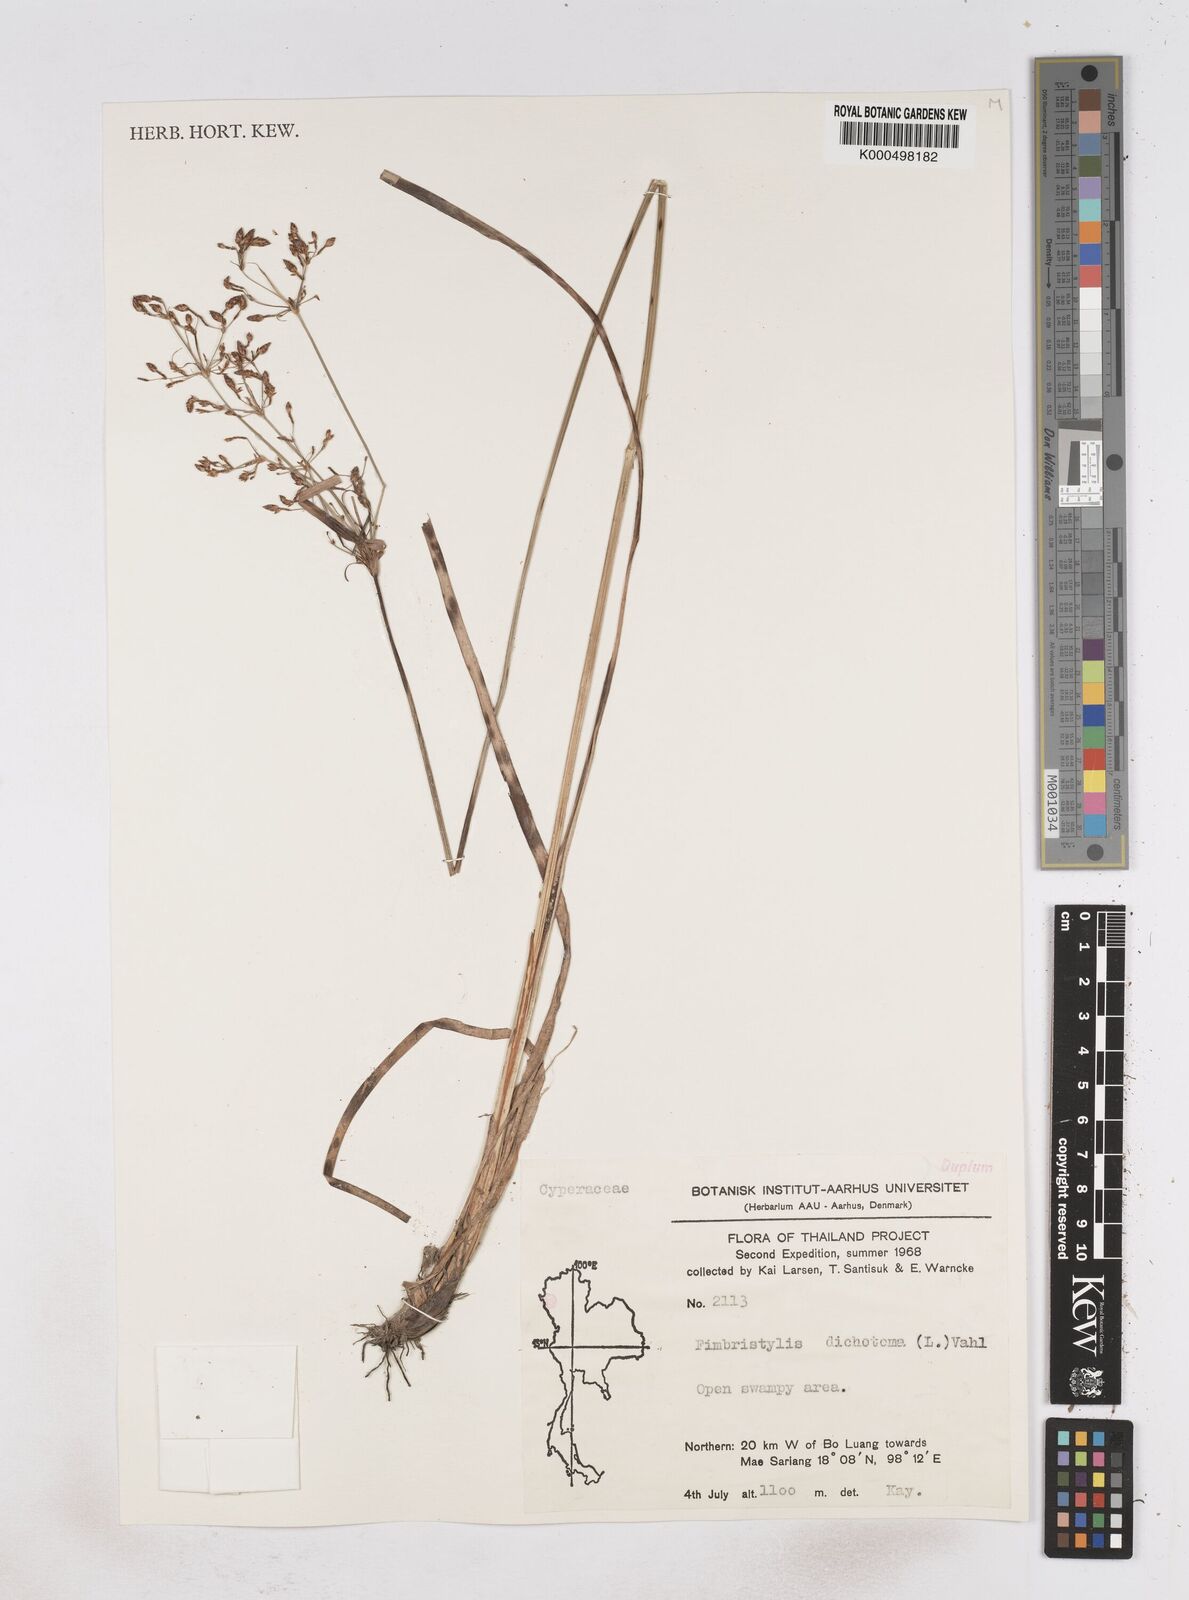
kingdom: Plantae
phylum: Tracheophyta
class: Liliopsida
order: Poales
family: Cyperaceae
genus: Fimbristylis
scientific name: Fimbristylis dichotoma
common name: Forked fimbry
